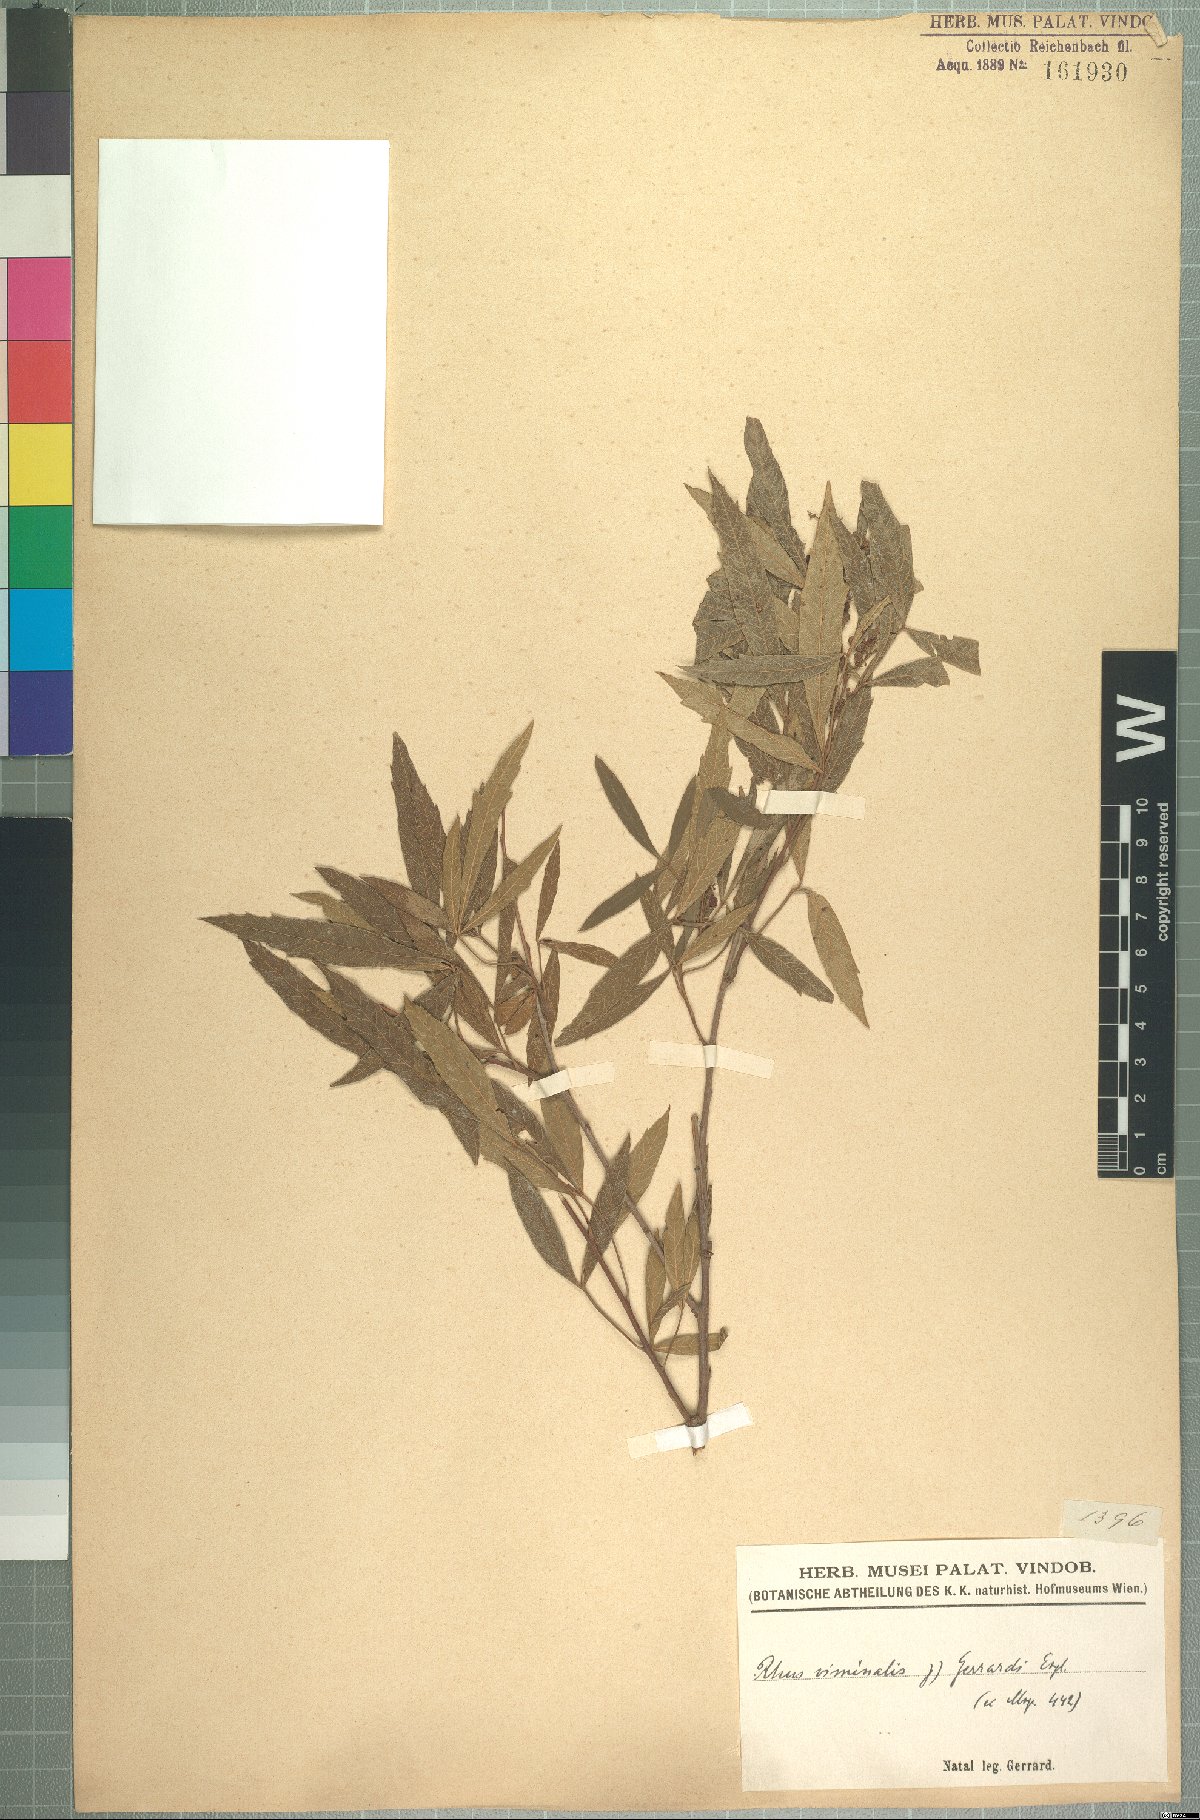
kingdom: Plantae
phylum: Tracheophyta
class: Magnoliopsida
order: Sapindales
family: Anacardiaceae
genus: Searsia
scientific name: Searsia gerrardii
